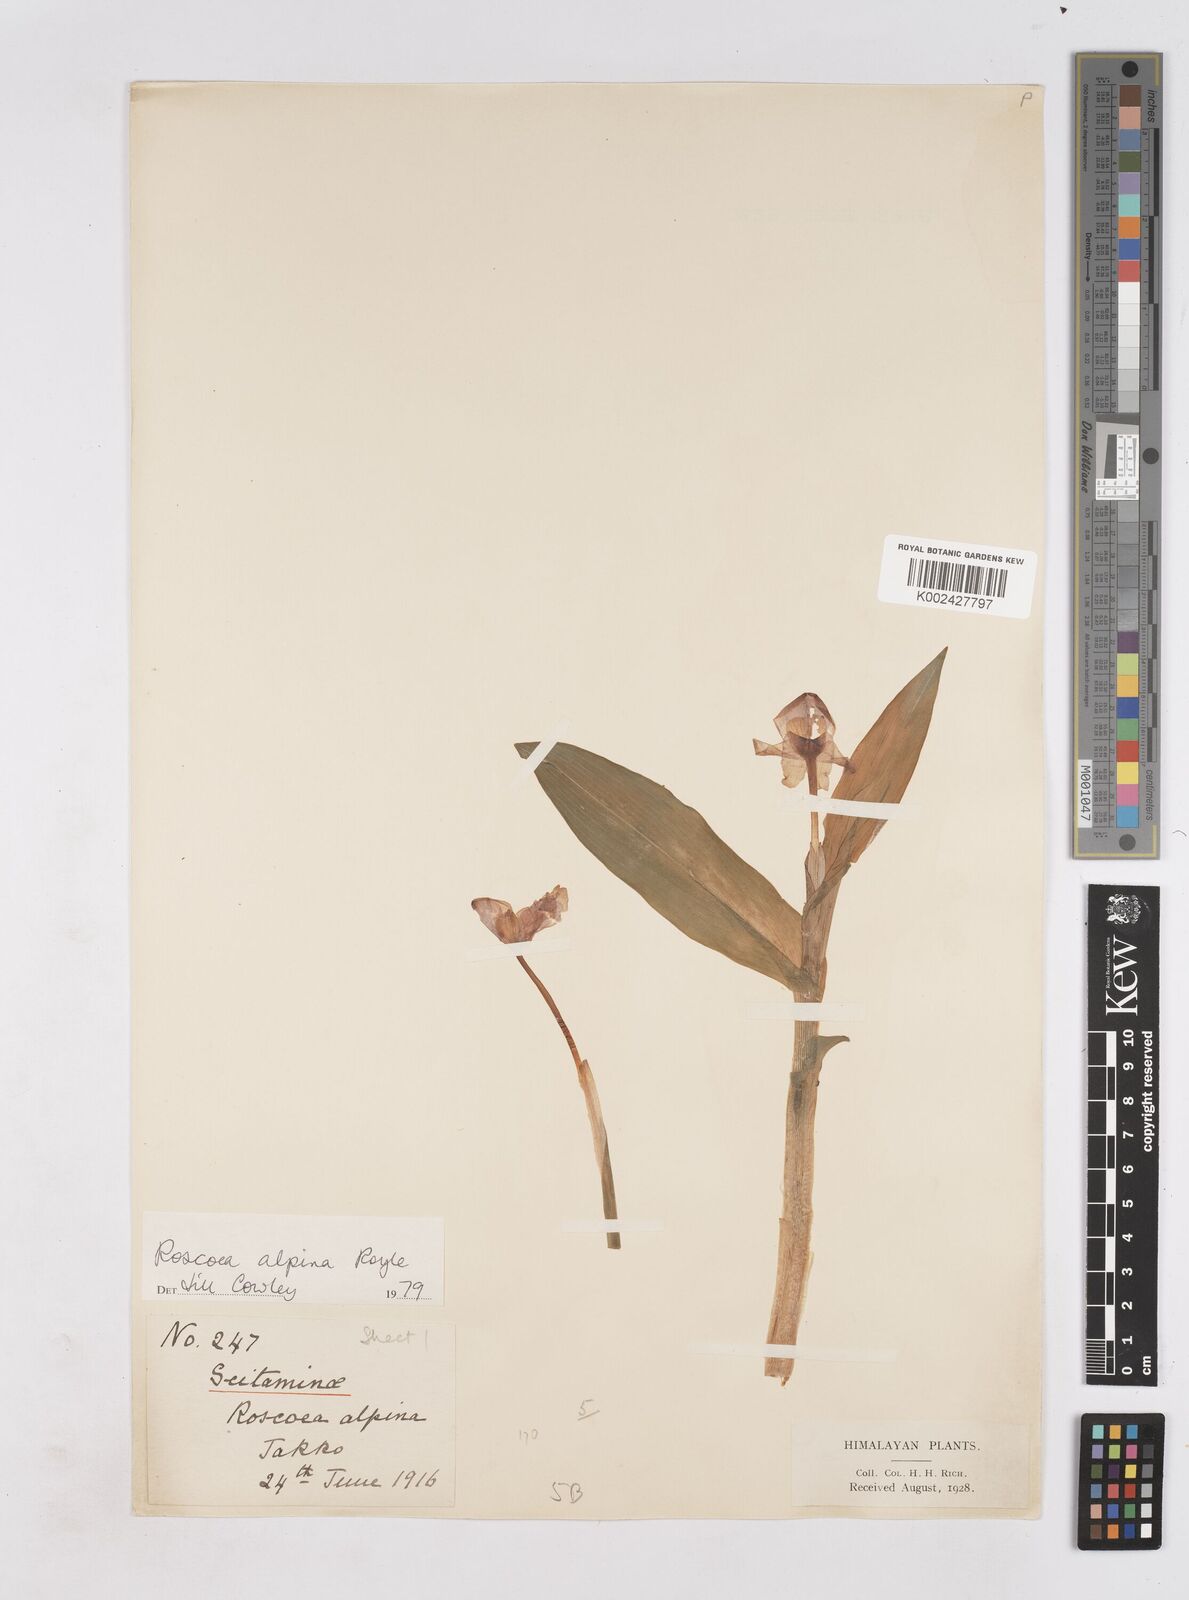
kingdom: Plantae
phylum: Tracheophyta
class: Liliopsida
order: Zingiberales
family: Zingiberaceae
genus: Roscoea
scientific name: Roscoea alpina
